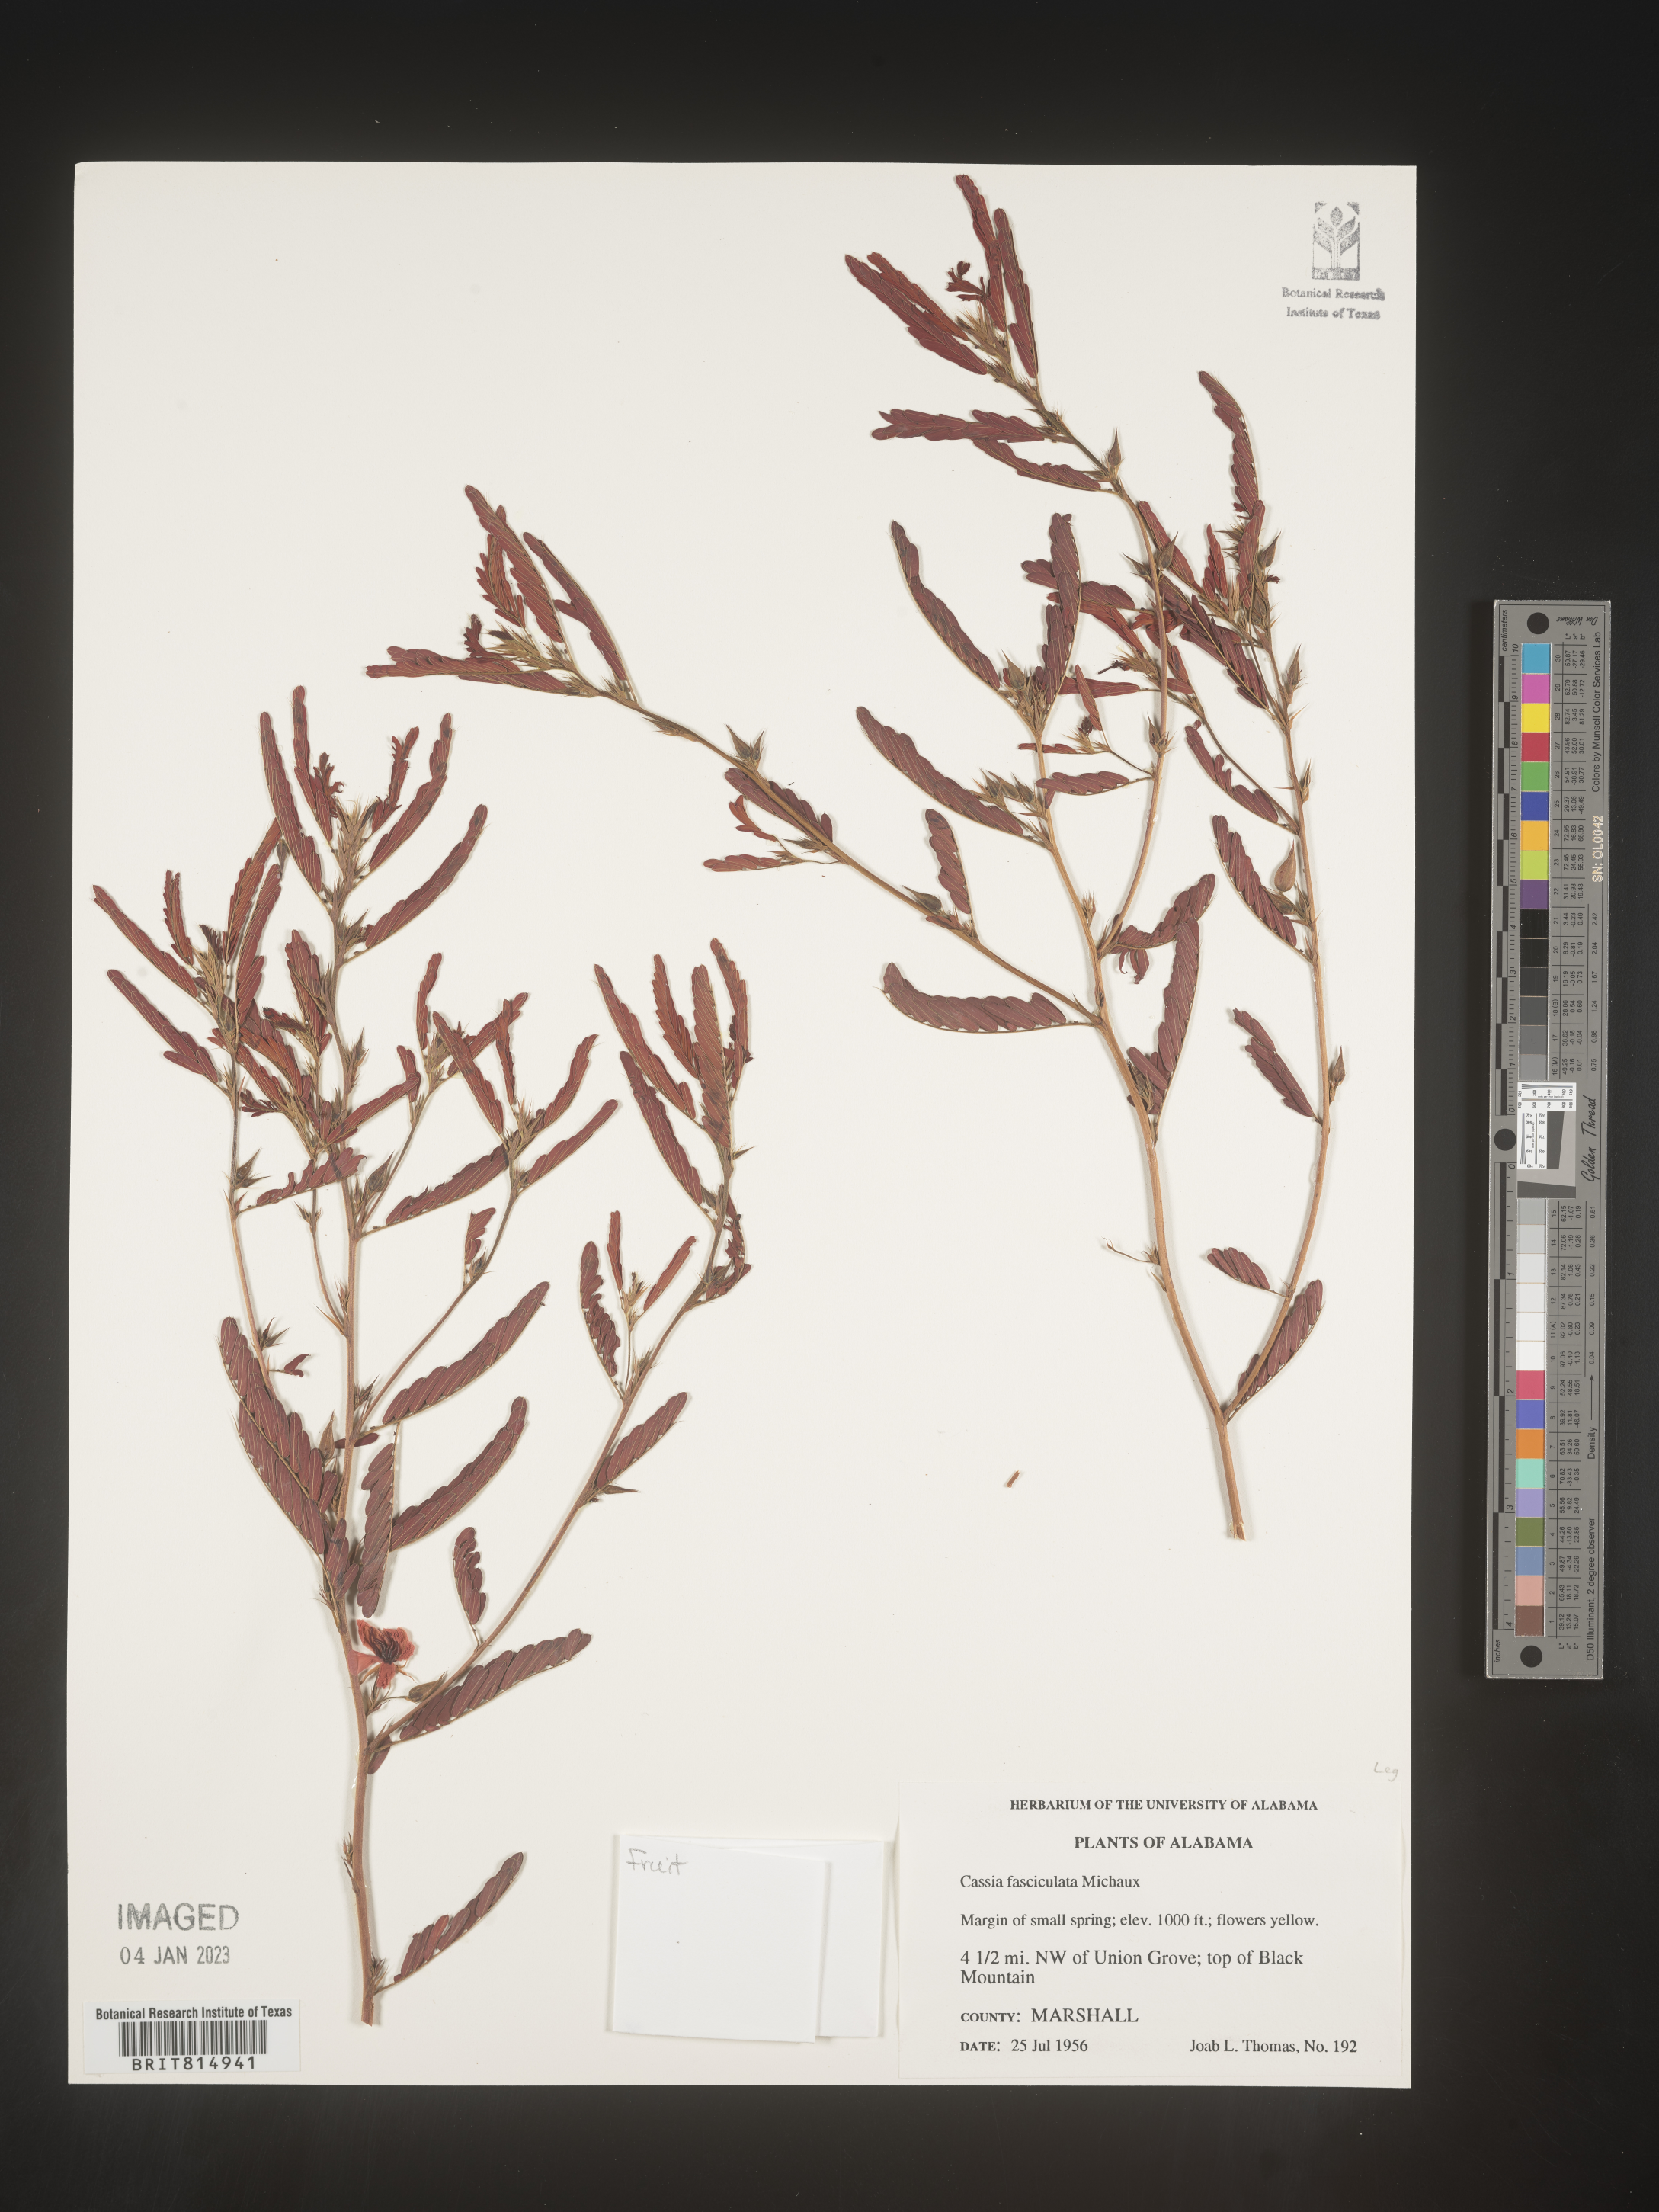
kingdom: Plantae
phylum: Tracheophyta
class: Magnoliopsida
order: Fabales
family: Fabaceae
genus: Chamaecrista
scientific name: Chamaecrista fasciculata
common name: Golden cassia
